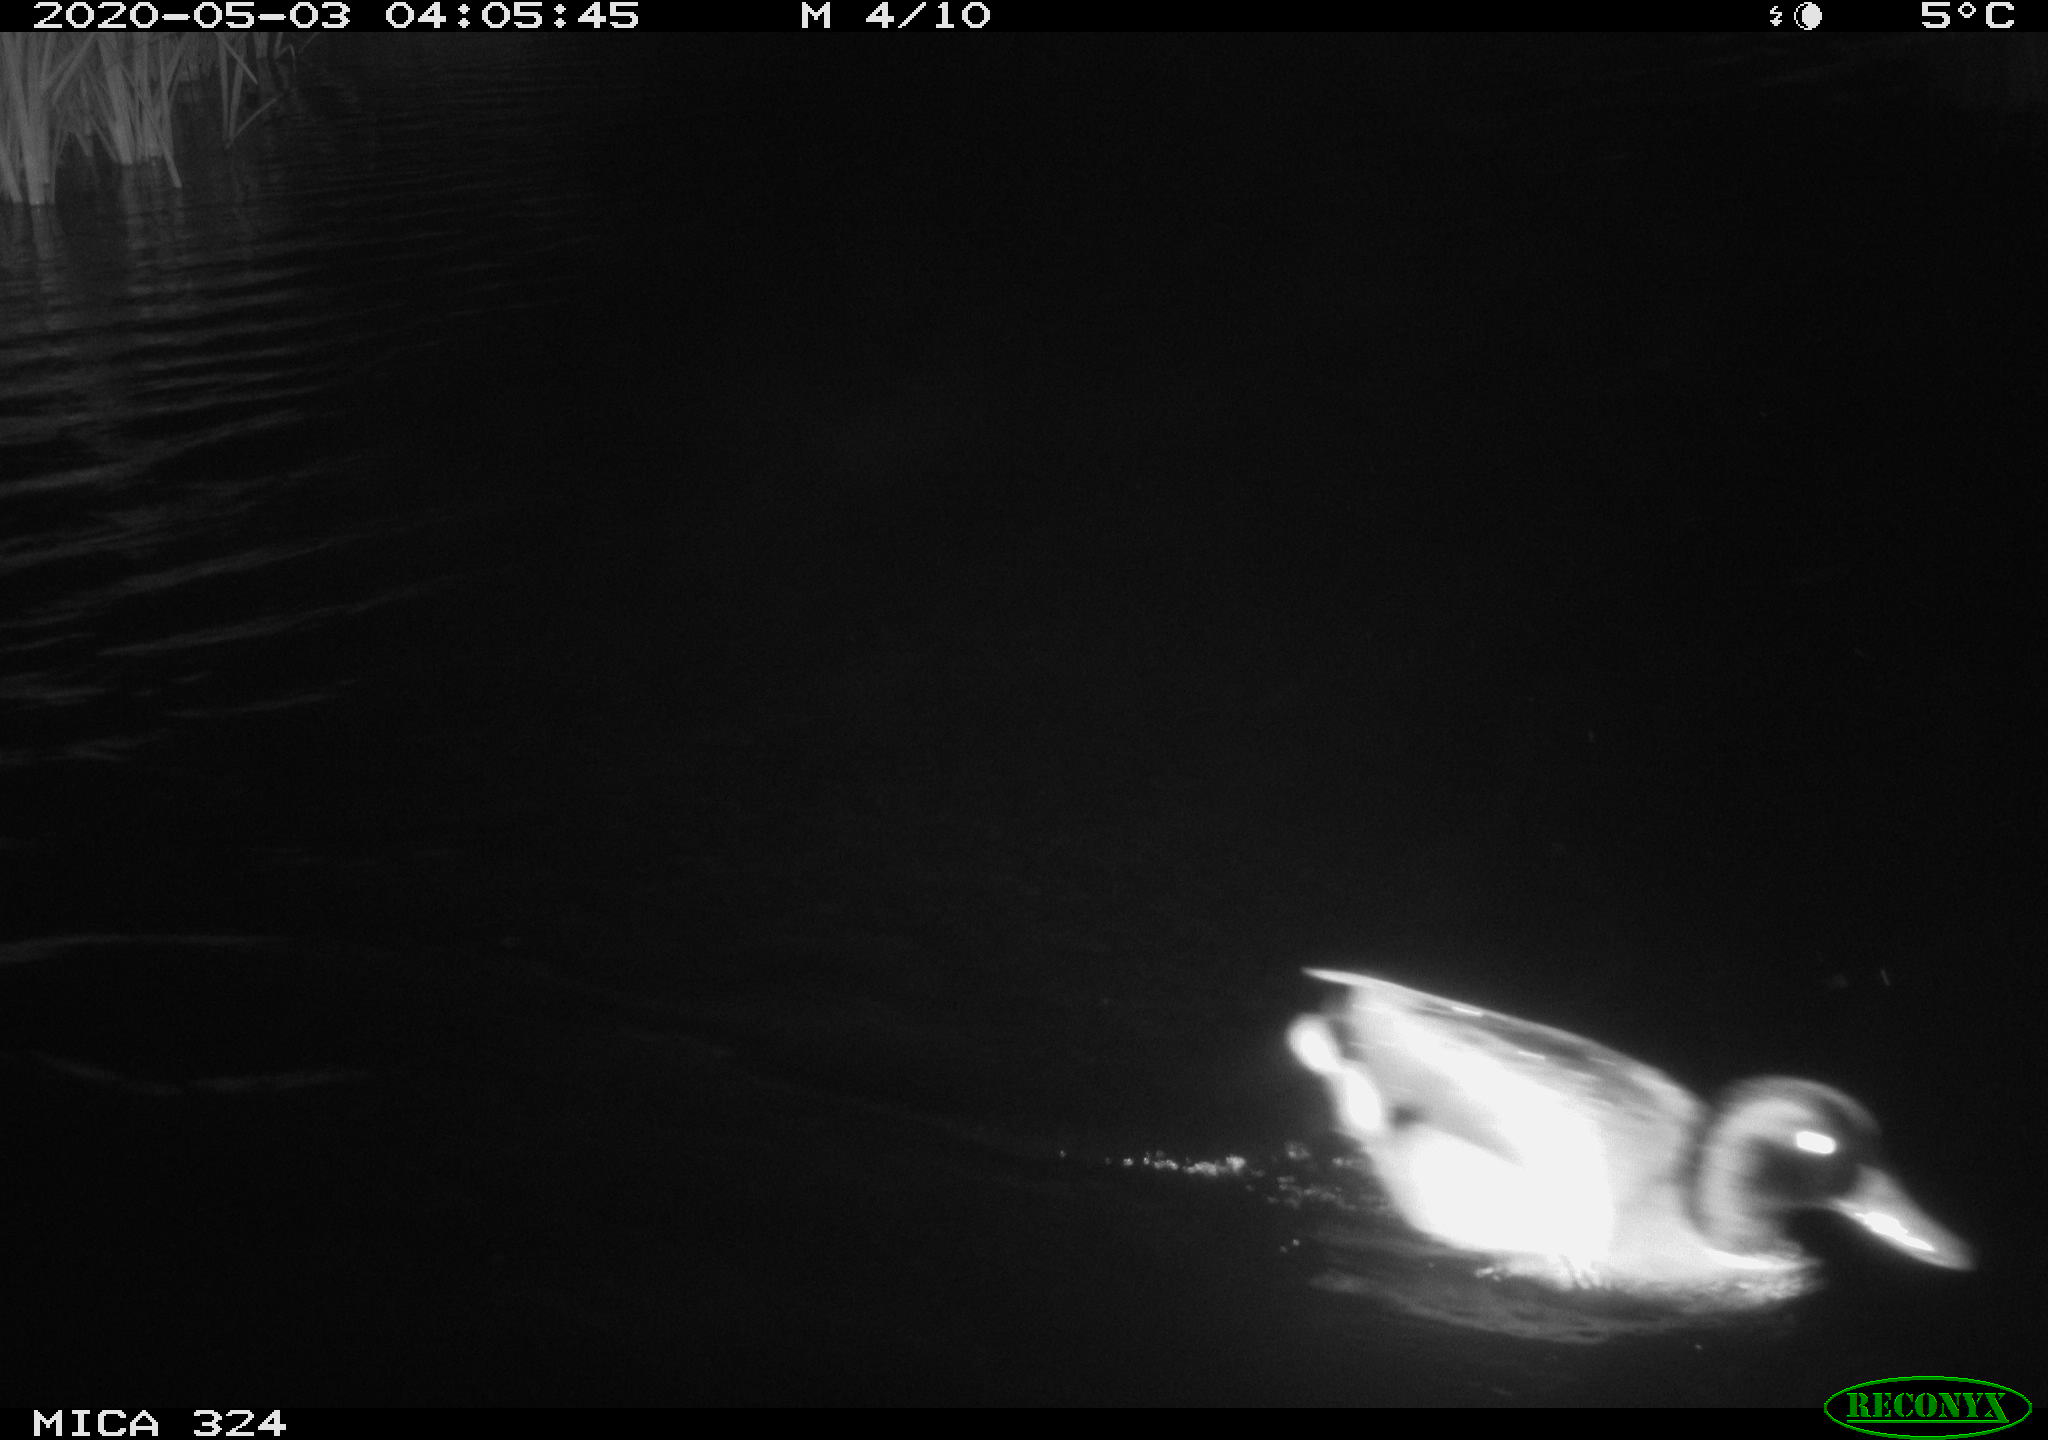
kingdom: Animalia
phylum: Chordata
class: Aves
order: Anseriformes
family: Anatidae
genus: Anas
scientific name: Anas platyrhynchos
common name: Mallard
